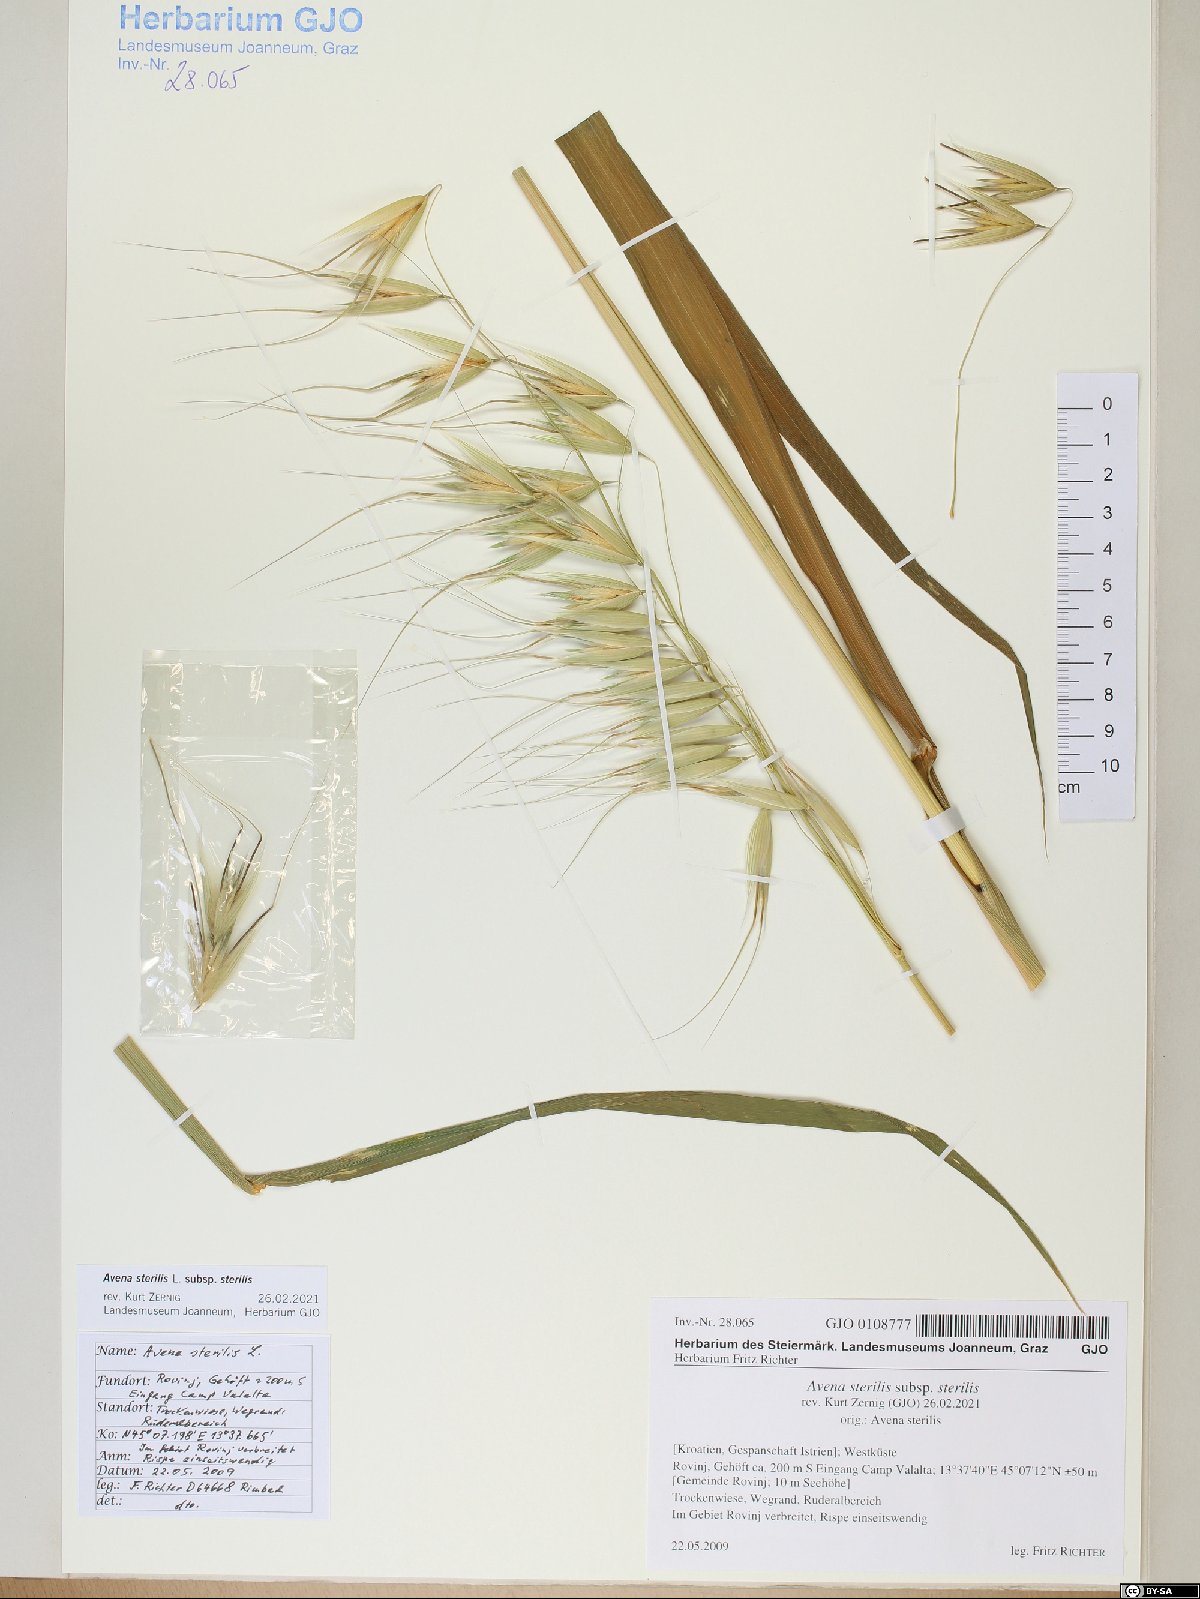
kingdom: Plantae
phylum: Tracheophyta
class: Liliopsida
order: Poales
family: Poaceae
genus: Avena
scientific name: Avena sterilis
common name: Animated oat
